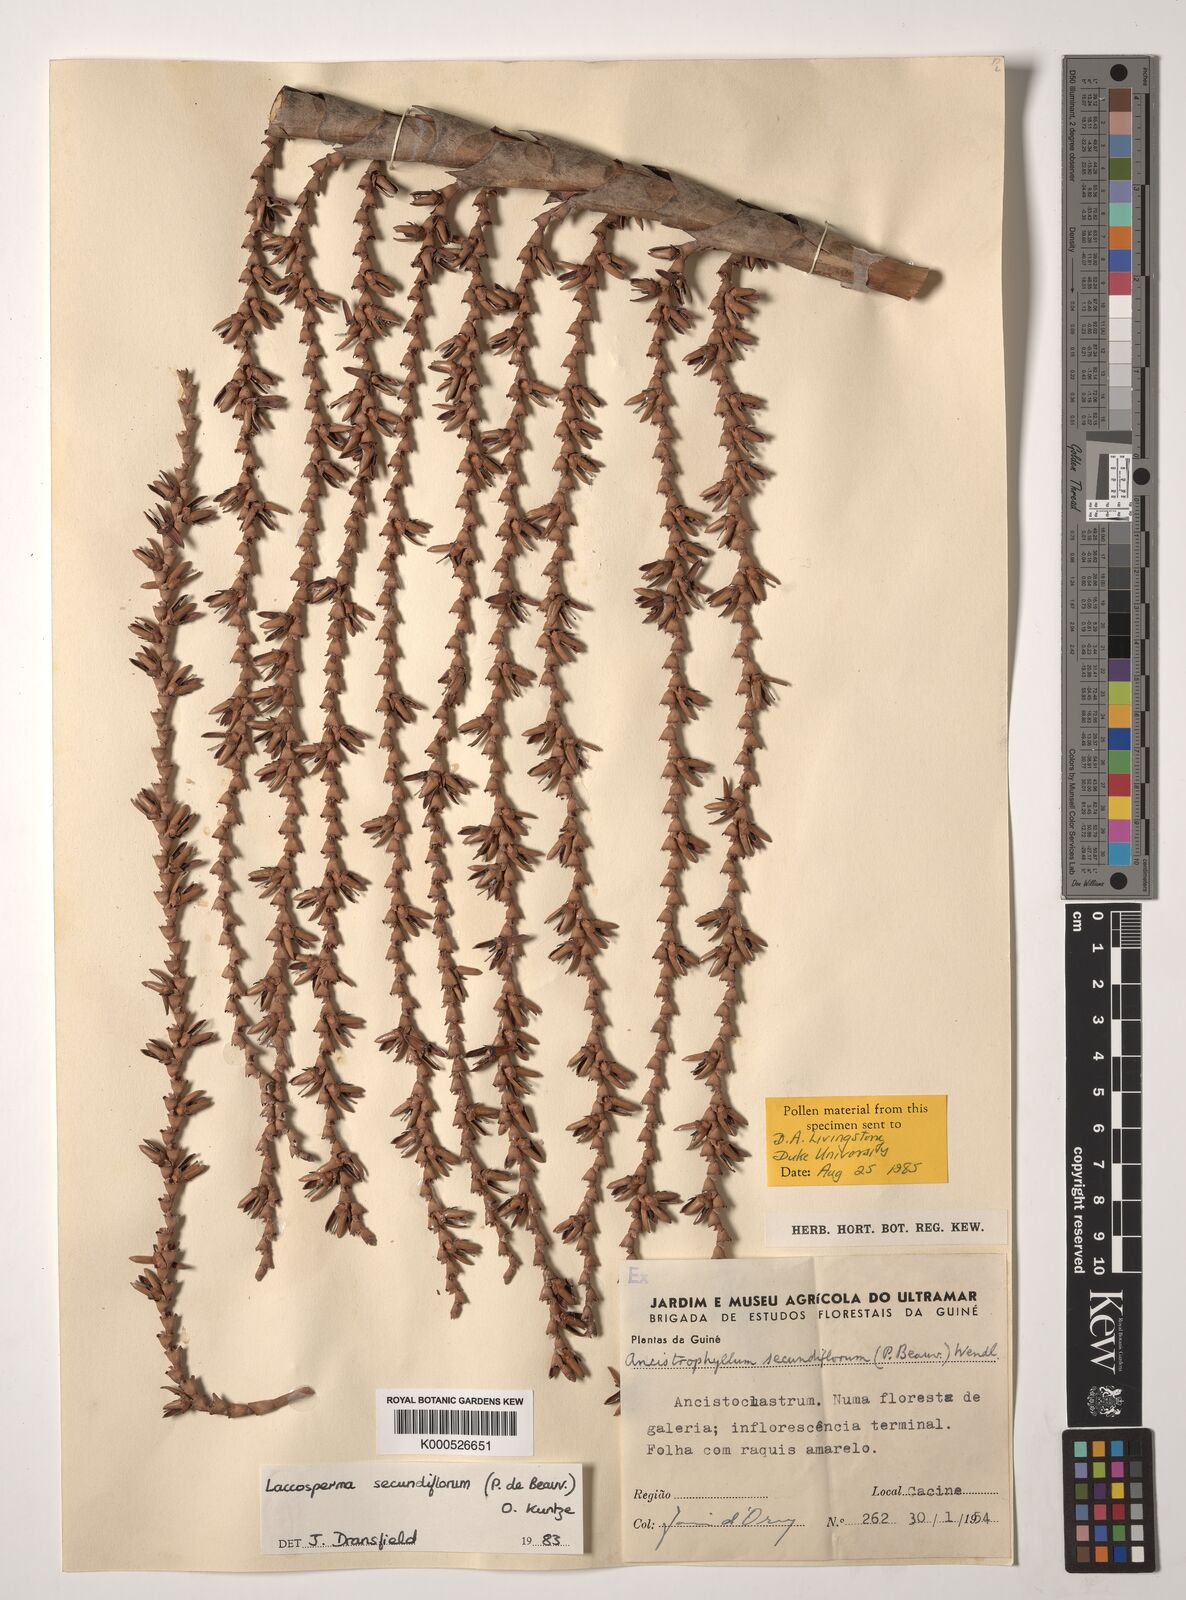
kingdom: Plantae
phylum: Tracheophyta
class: Liliopsida
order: Arecales
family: Arecaceae
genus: Laccosperma
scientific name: Laccosperma secundiflorum
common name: Rattan
